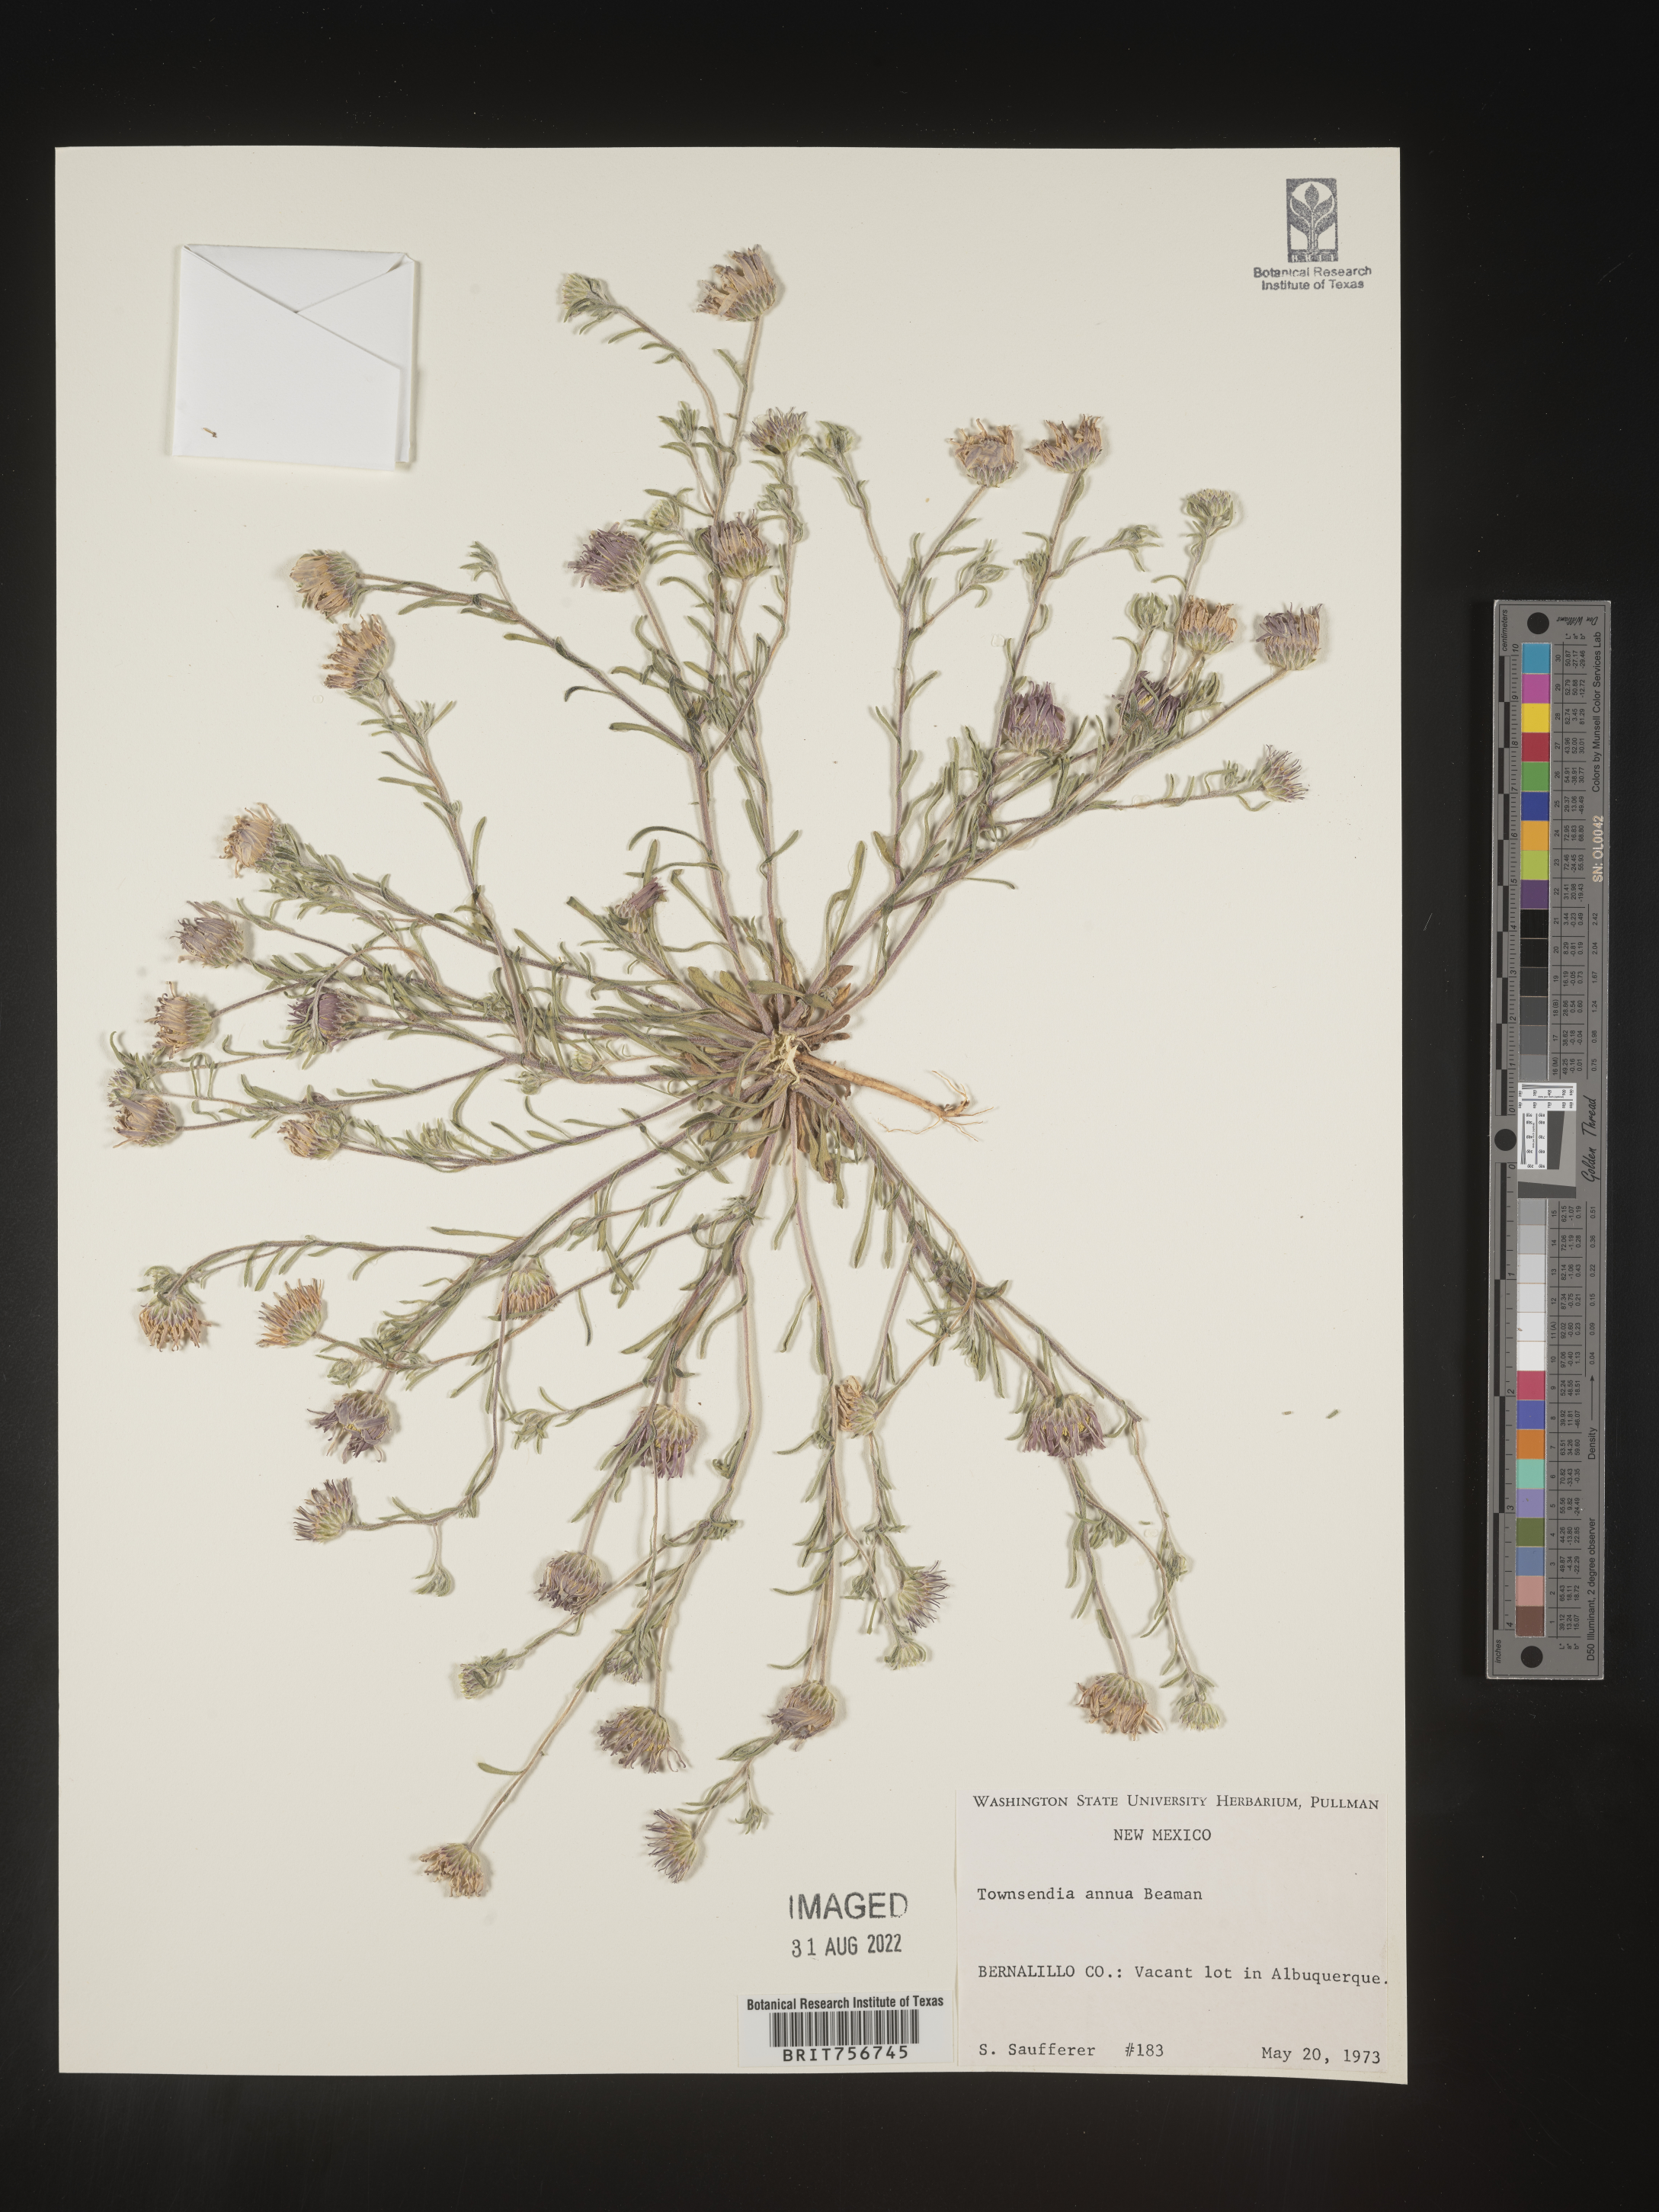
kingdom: Plantae
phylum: Tracheophyta
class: Magnoliopsida
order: Asterales
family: Asteraceae
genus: Townsendia
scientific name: Townsendia annua
